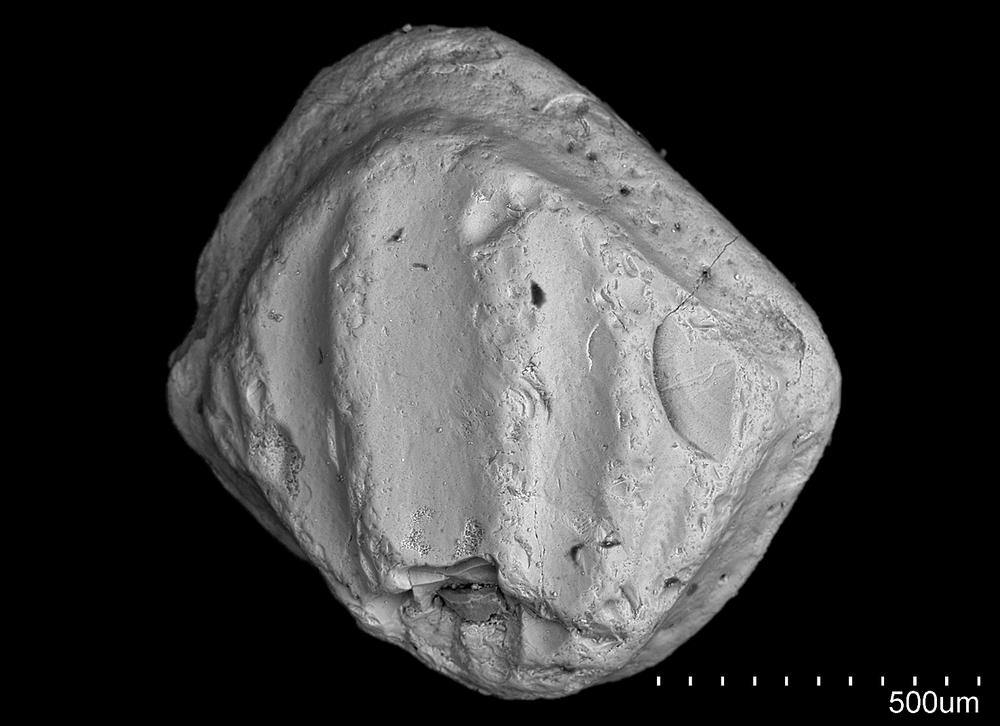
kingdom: Animalia
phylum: Chordata
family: Climatiidae
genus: Nostolepis
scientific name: Nostolepis
